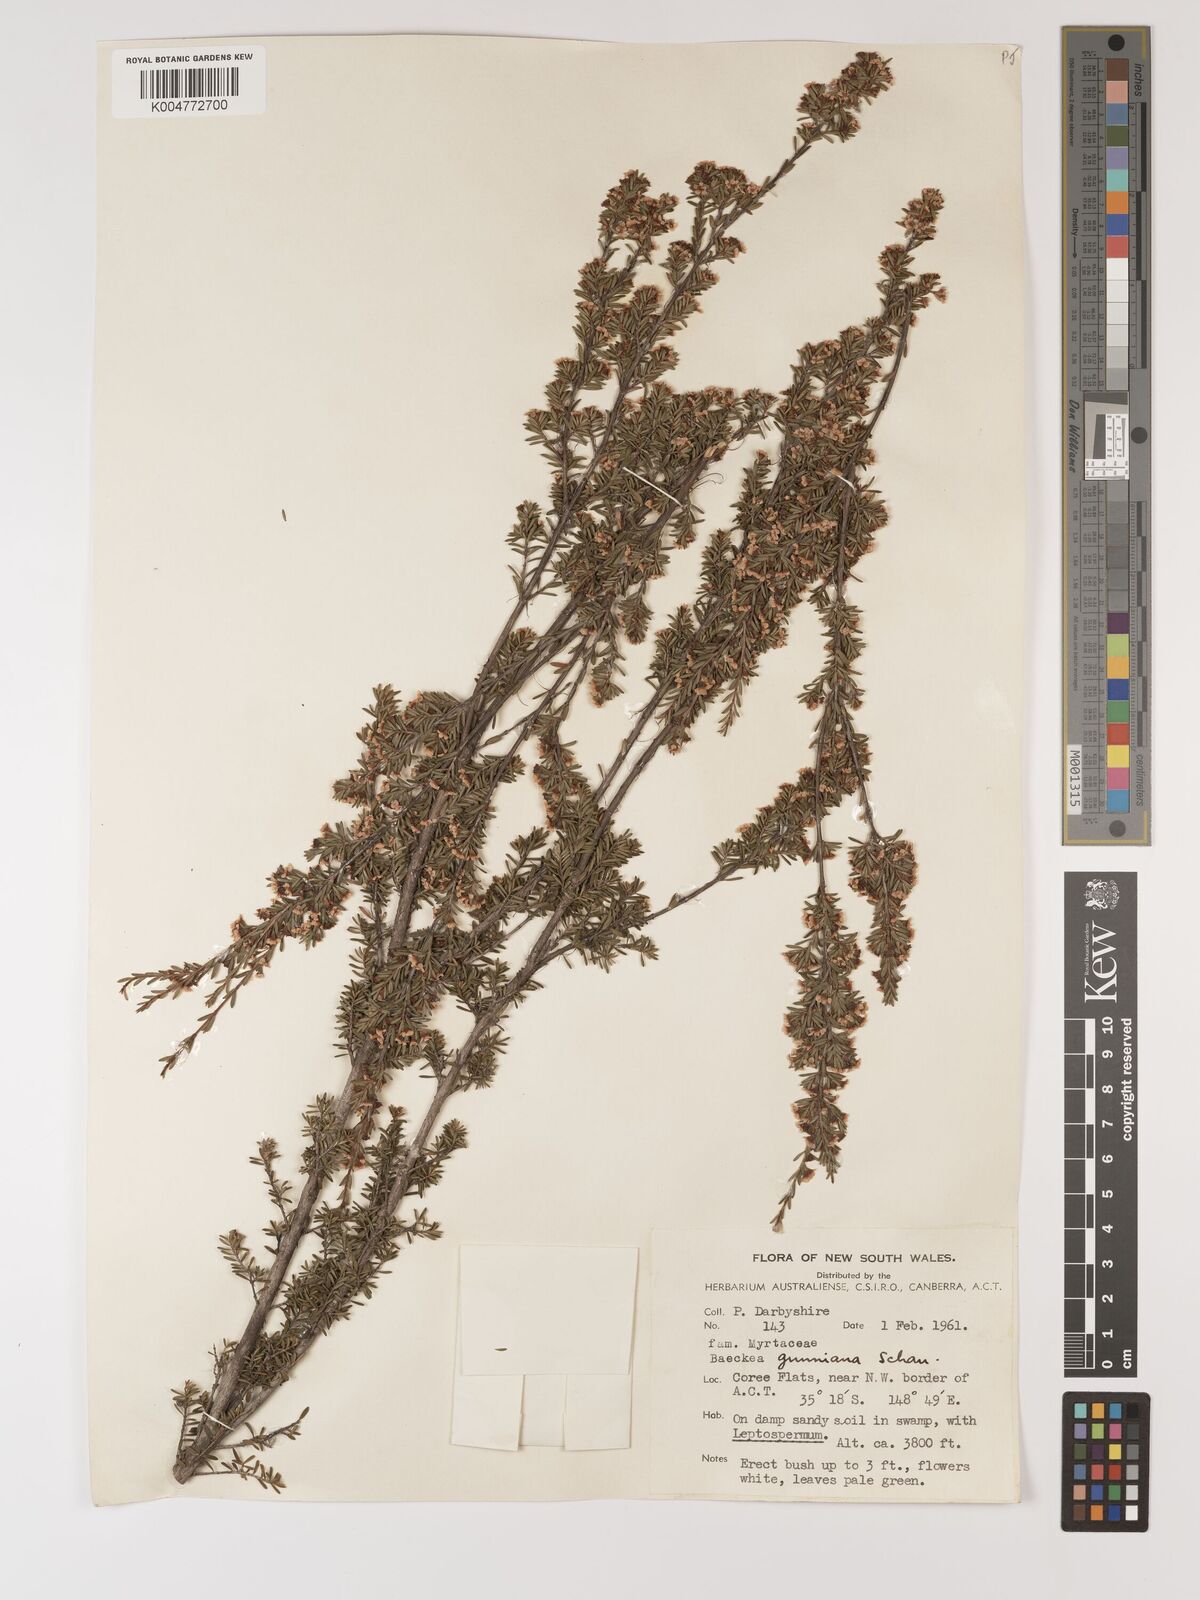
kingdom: Plantae
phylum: Tracheophyta
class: Magnoliopsida
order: Myrtales
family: Myrtaceae
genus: Baeckea
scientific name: Baeckea gunniana
